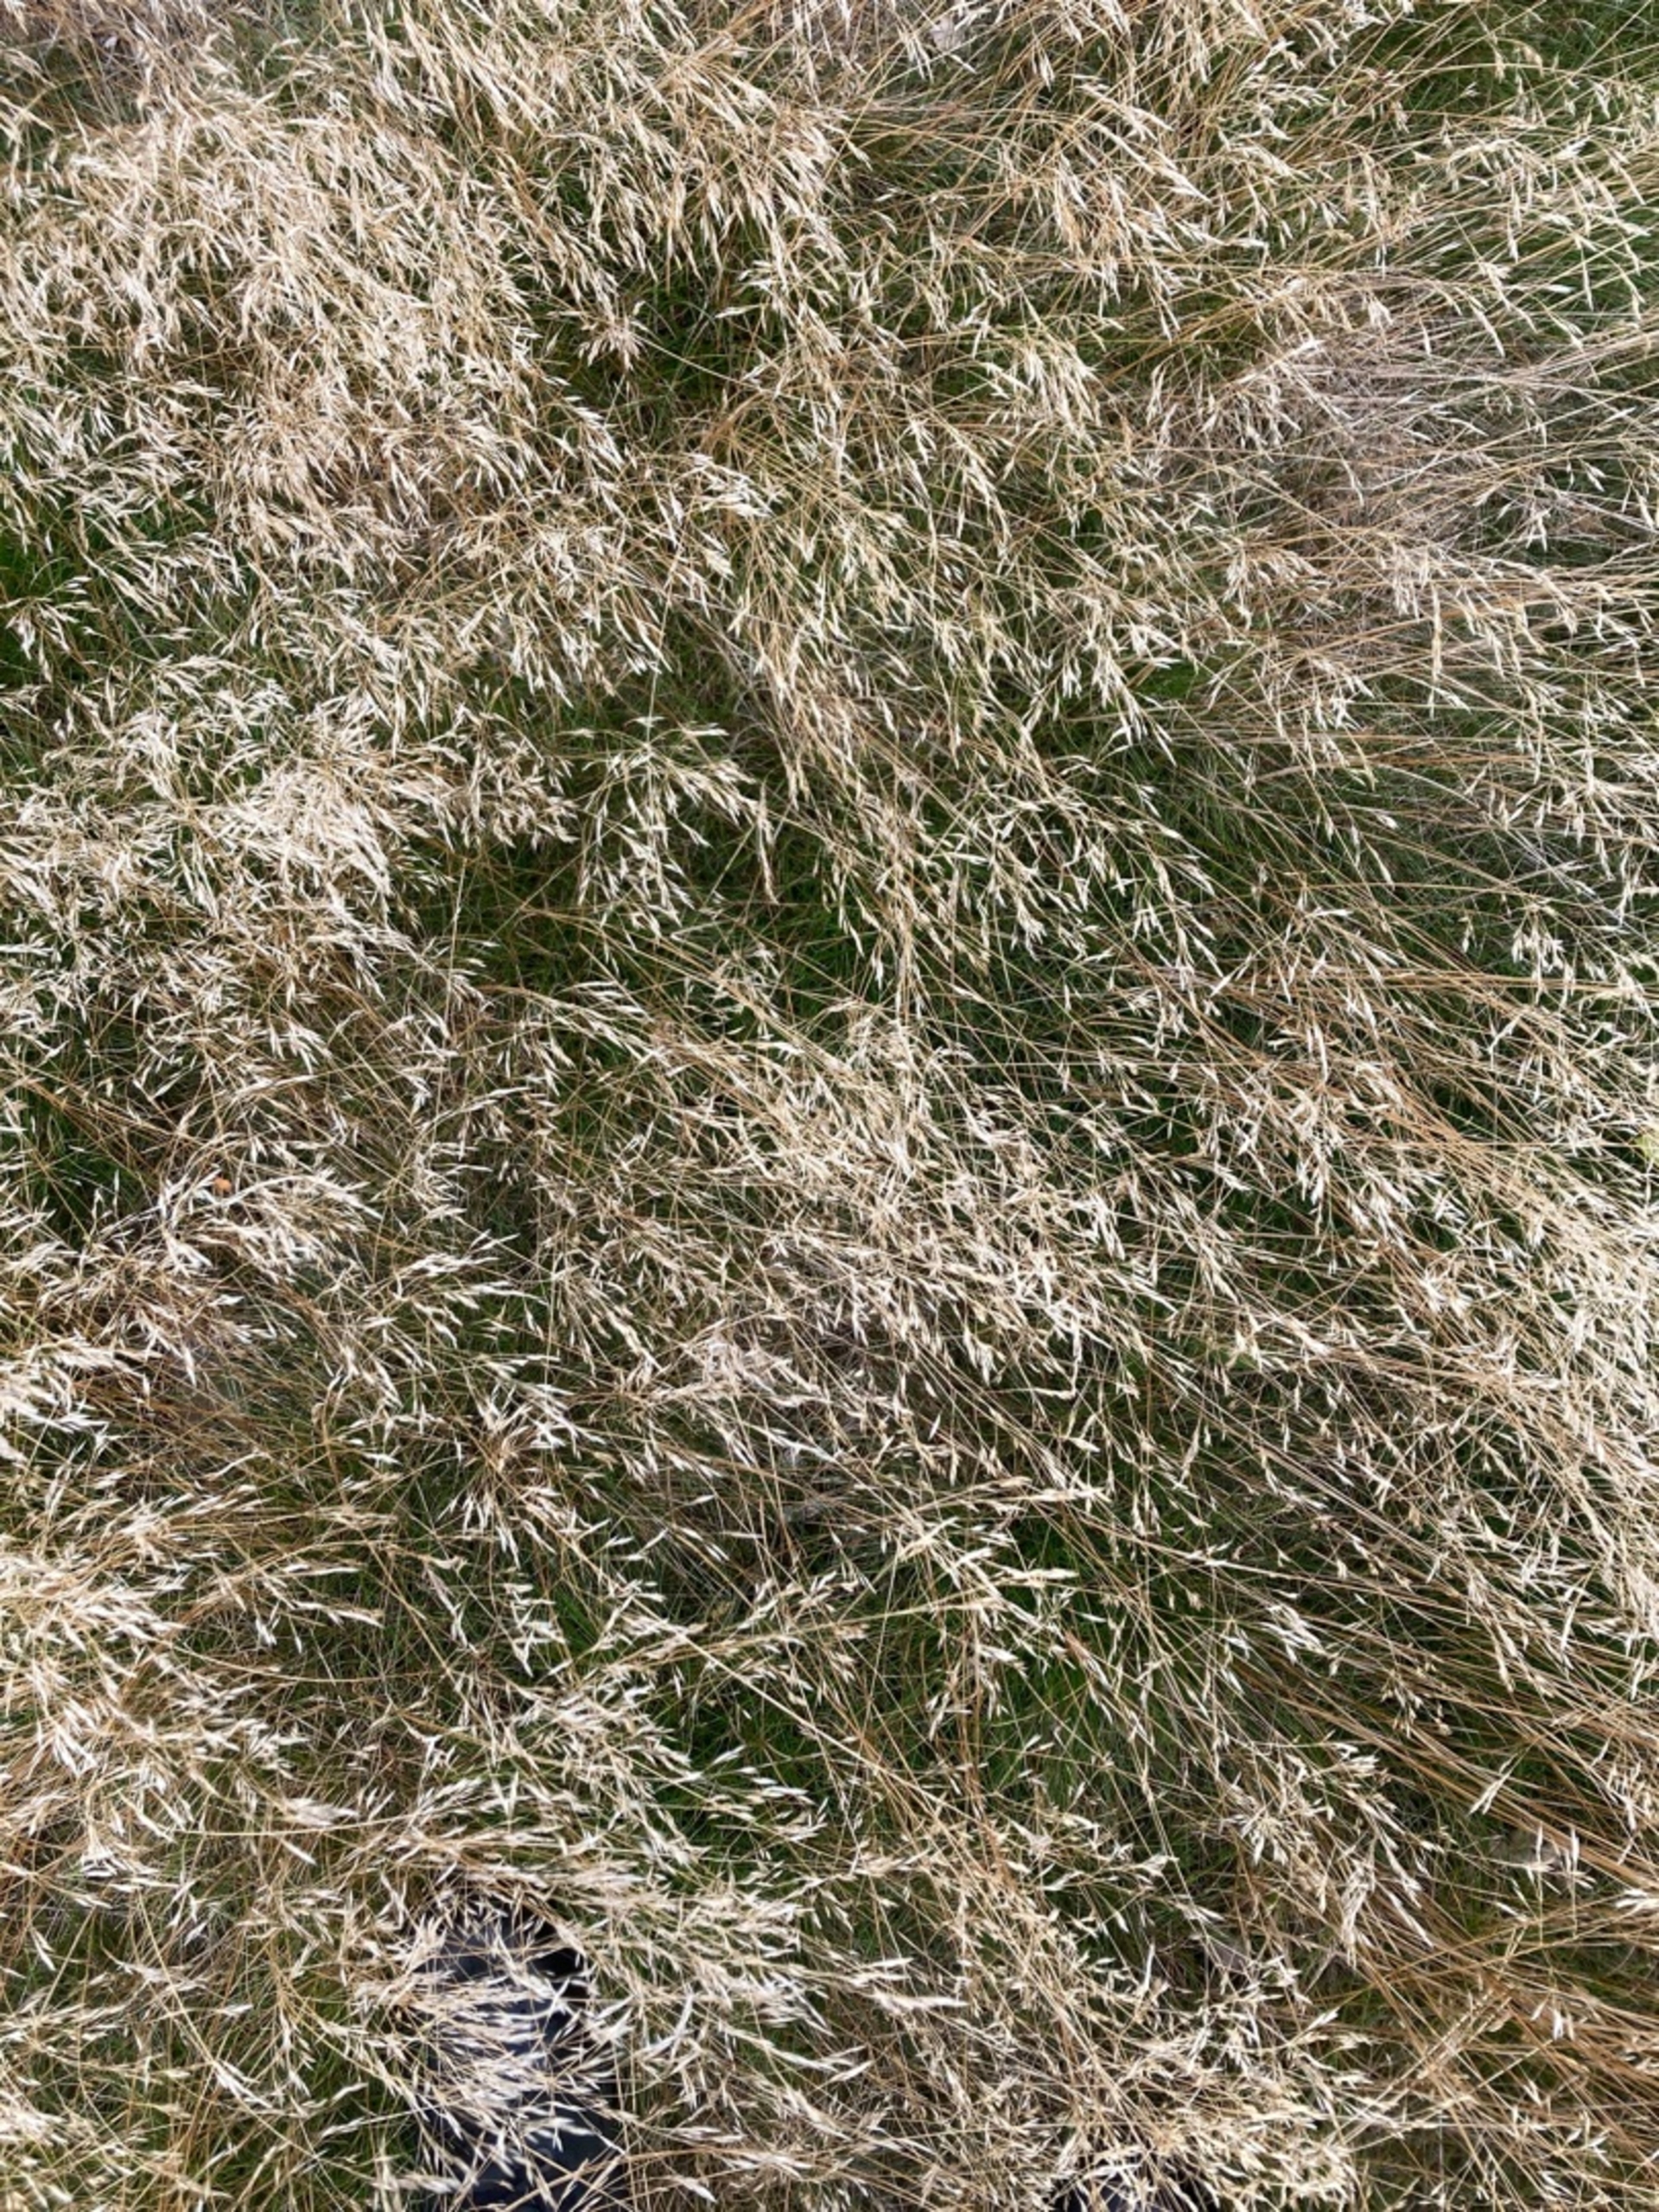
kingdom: Plantae
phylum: Tracheophyta
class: Liliopsida
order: Poales
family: Poaceae
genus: Avenella
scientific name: Avenella flexuosa
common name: Bølget bunke
